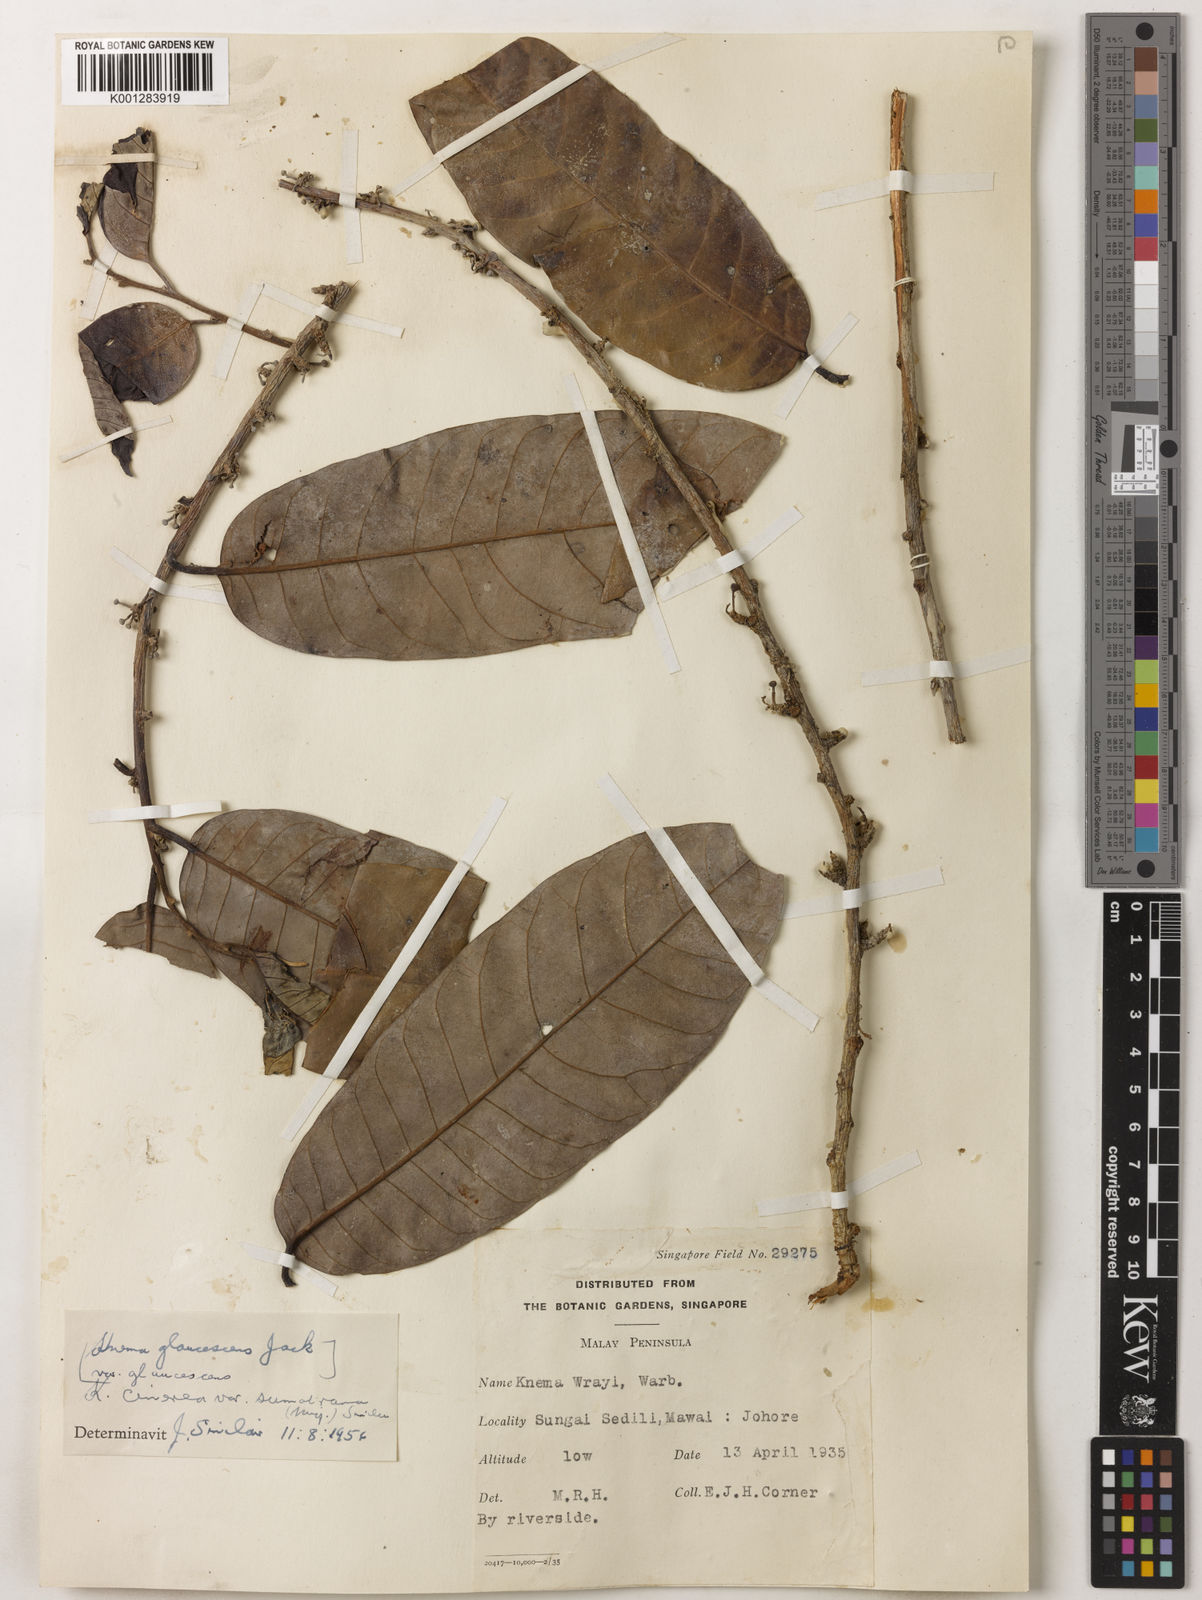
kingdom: Plantae
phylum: Tracheophyta
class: Magnoliopsida
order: Magnoliales
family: Myristicaceae
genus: Knema
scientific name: Knema
